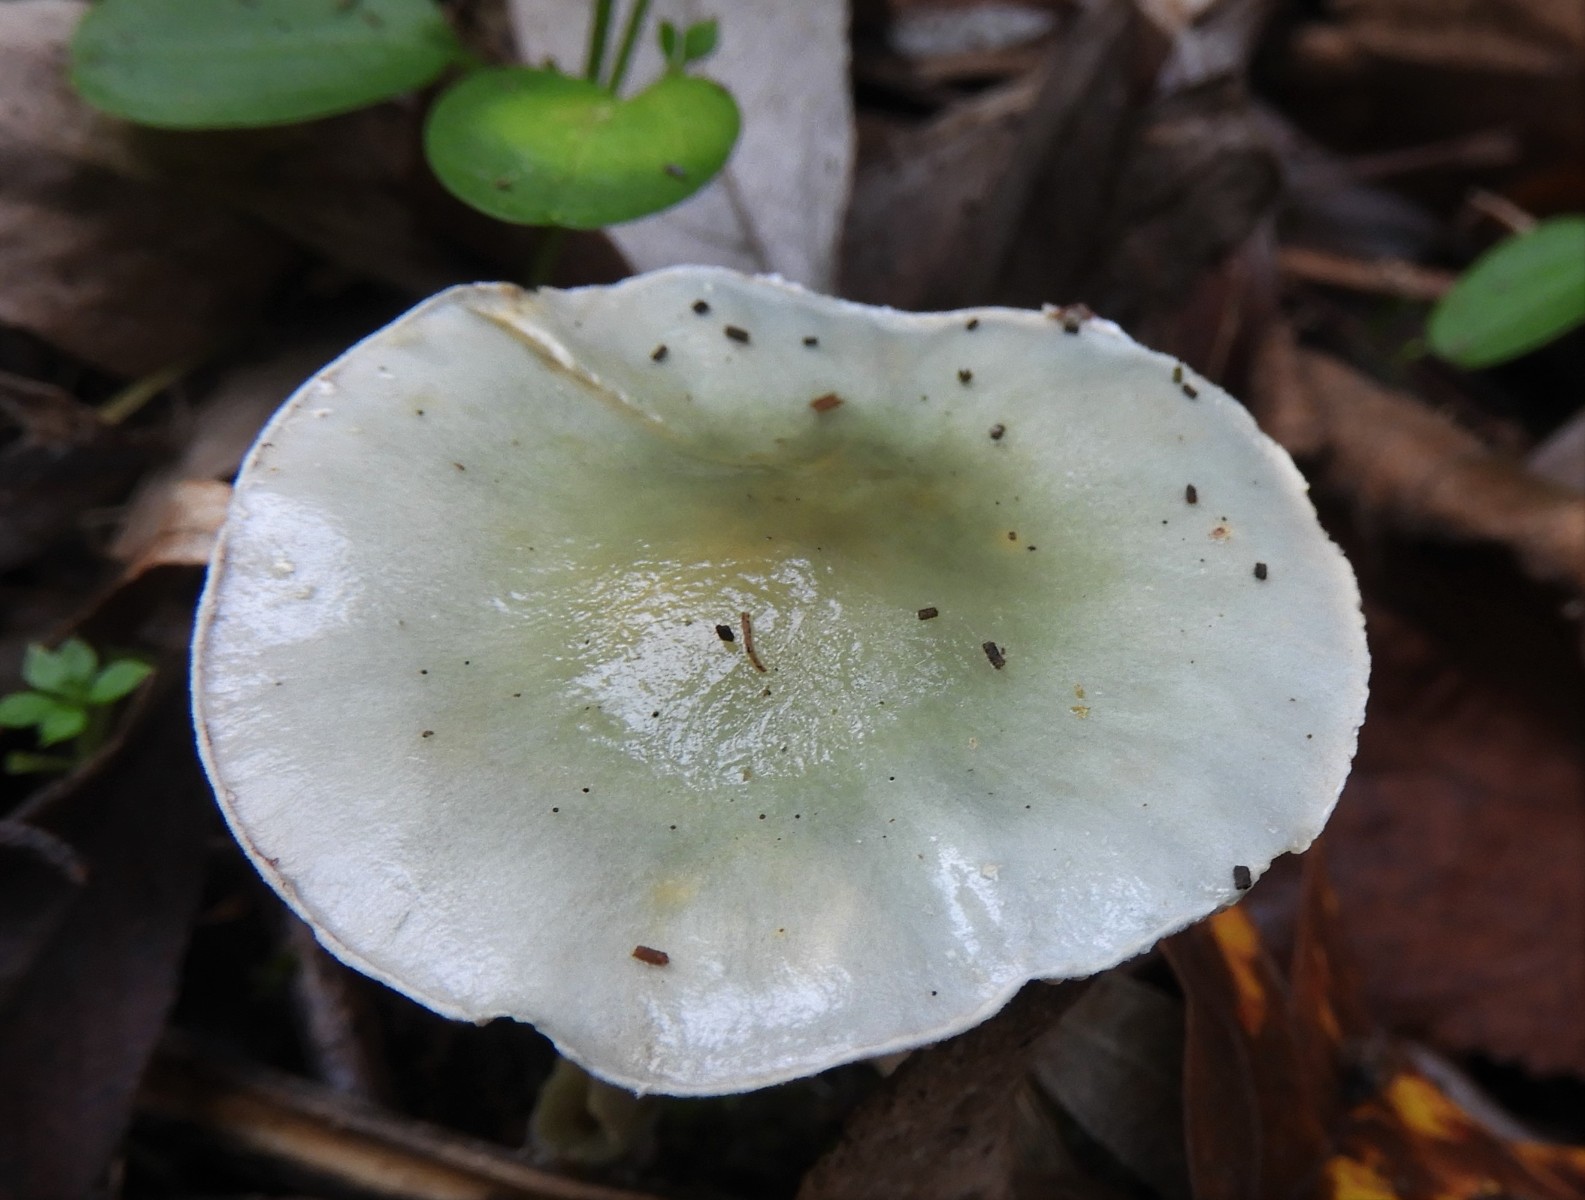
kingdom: Fungi
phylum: Basidiomycota
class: Agaricomycetes
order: Agaricales
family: Strophariaceae
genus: Stropharia
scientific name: Stropharia cyanea
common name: blågrøn bredblad
